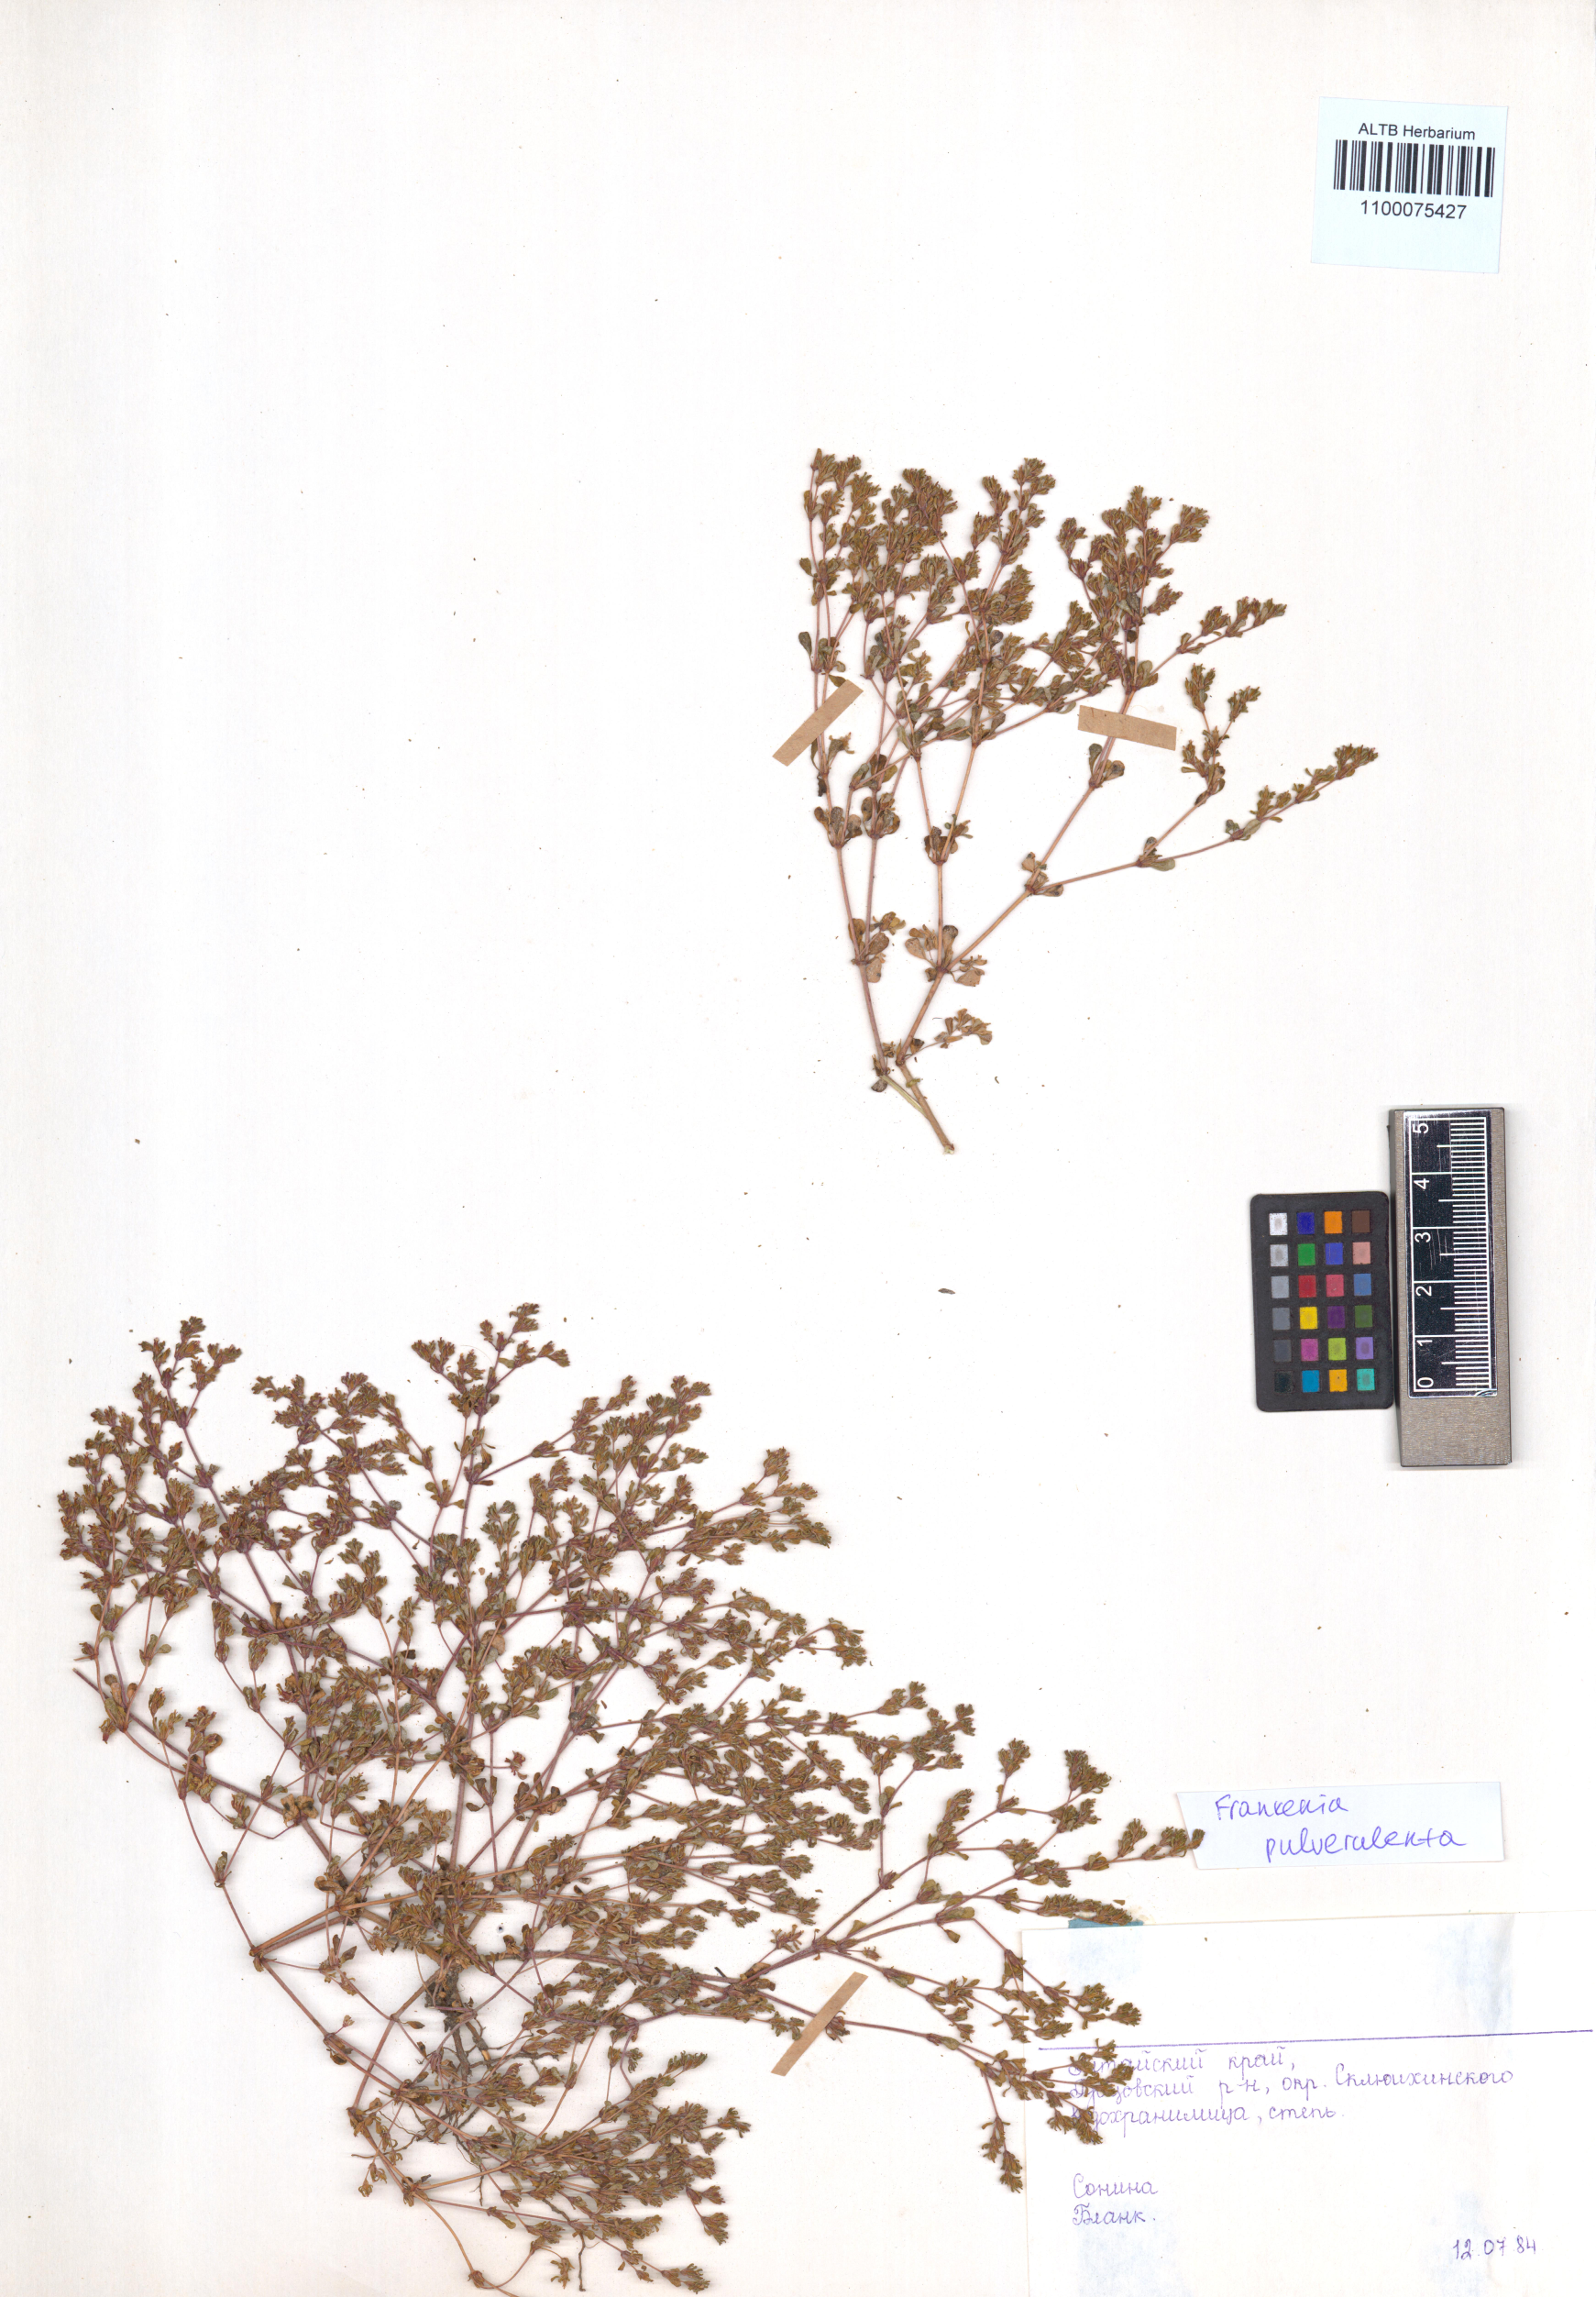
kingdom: Plantae
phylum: Tracheophyta
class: Magnoliopsida
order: Caryophyllales
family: Frankeniaceae
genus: Frankenia
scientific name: Frankenia pulverulenta
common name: European seaheath
